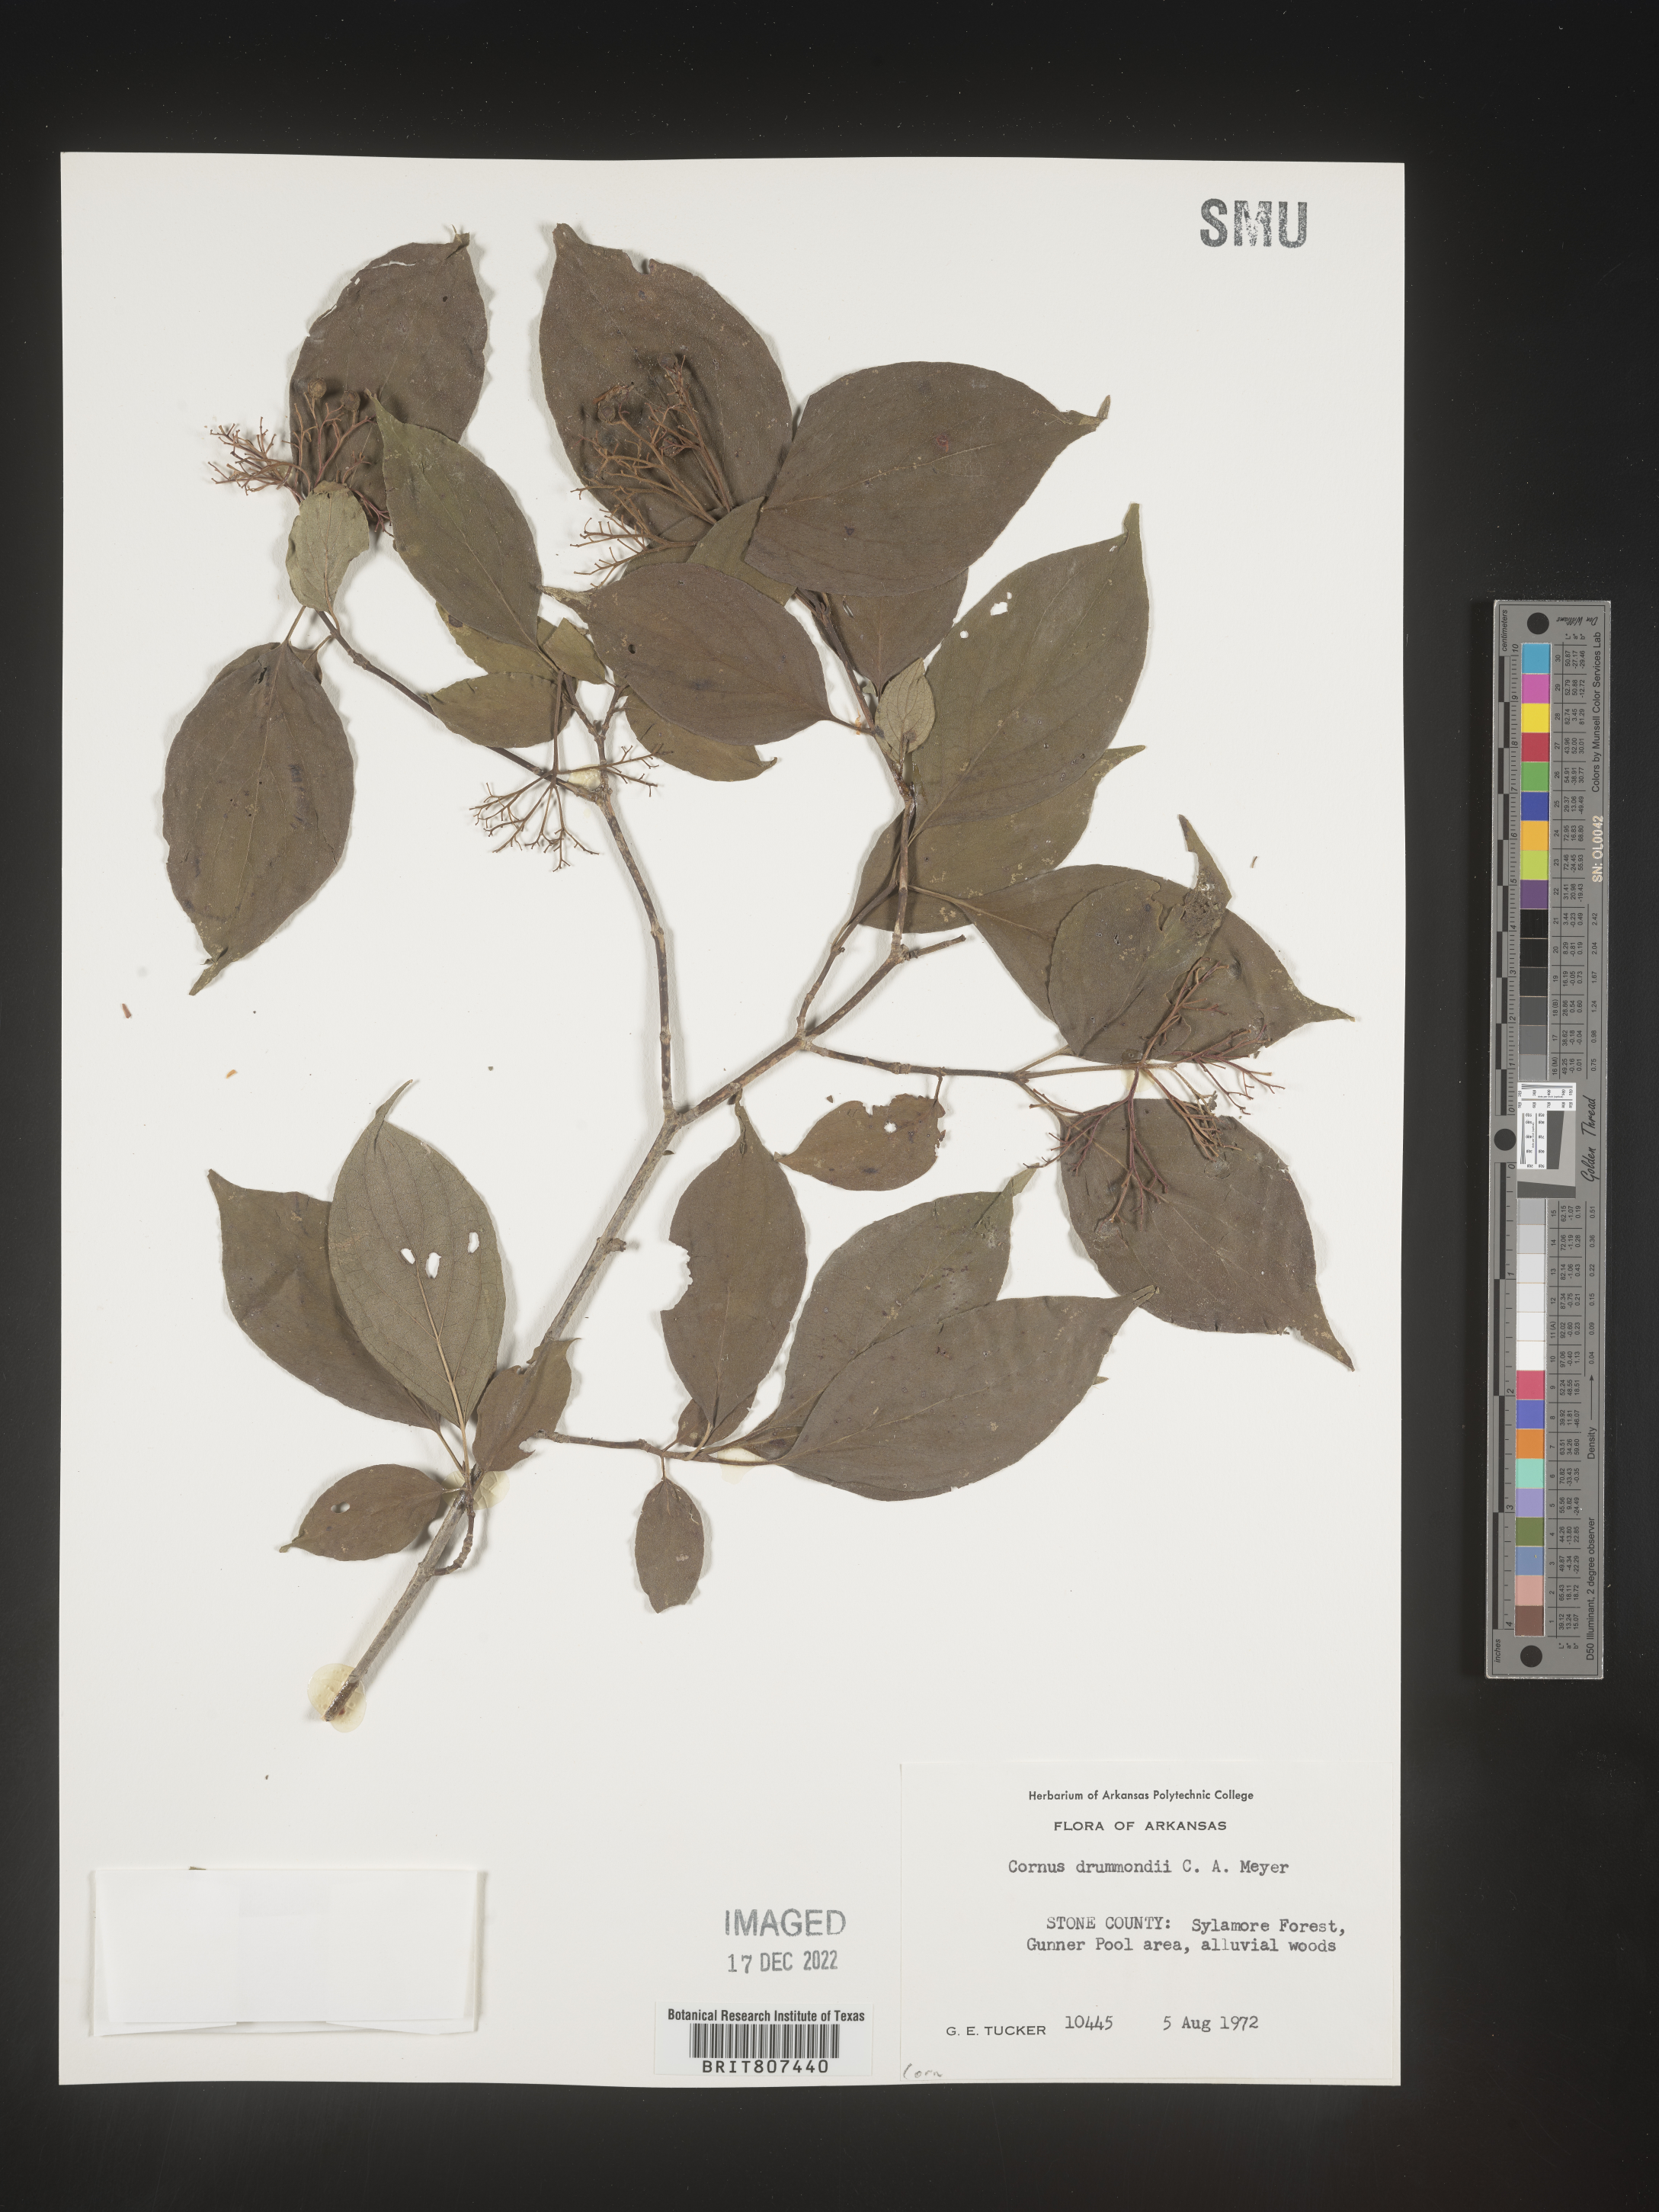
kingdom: Plantae
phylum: Tracheophyta
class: Magnoliopsida
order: Cornales
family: Cornaceae
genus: Cornus
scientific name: Cornus drummondii
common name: Rough-leaf dogwood
